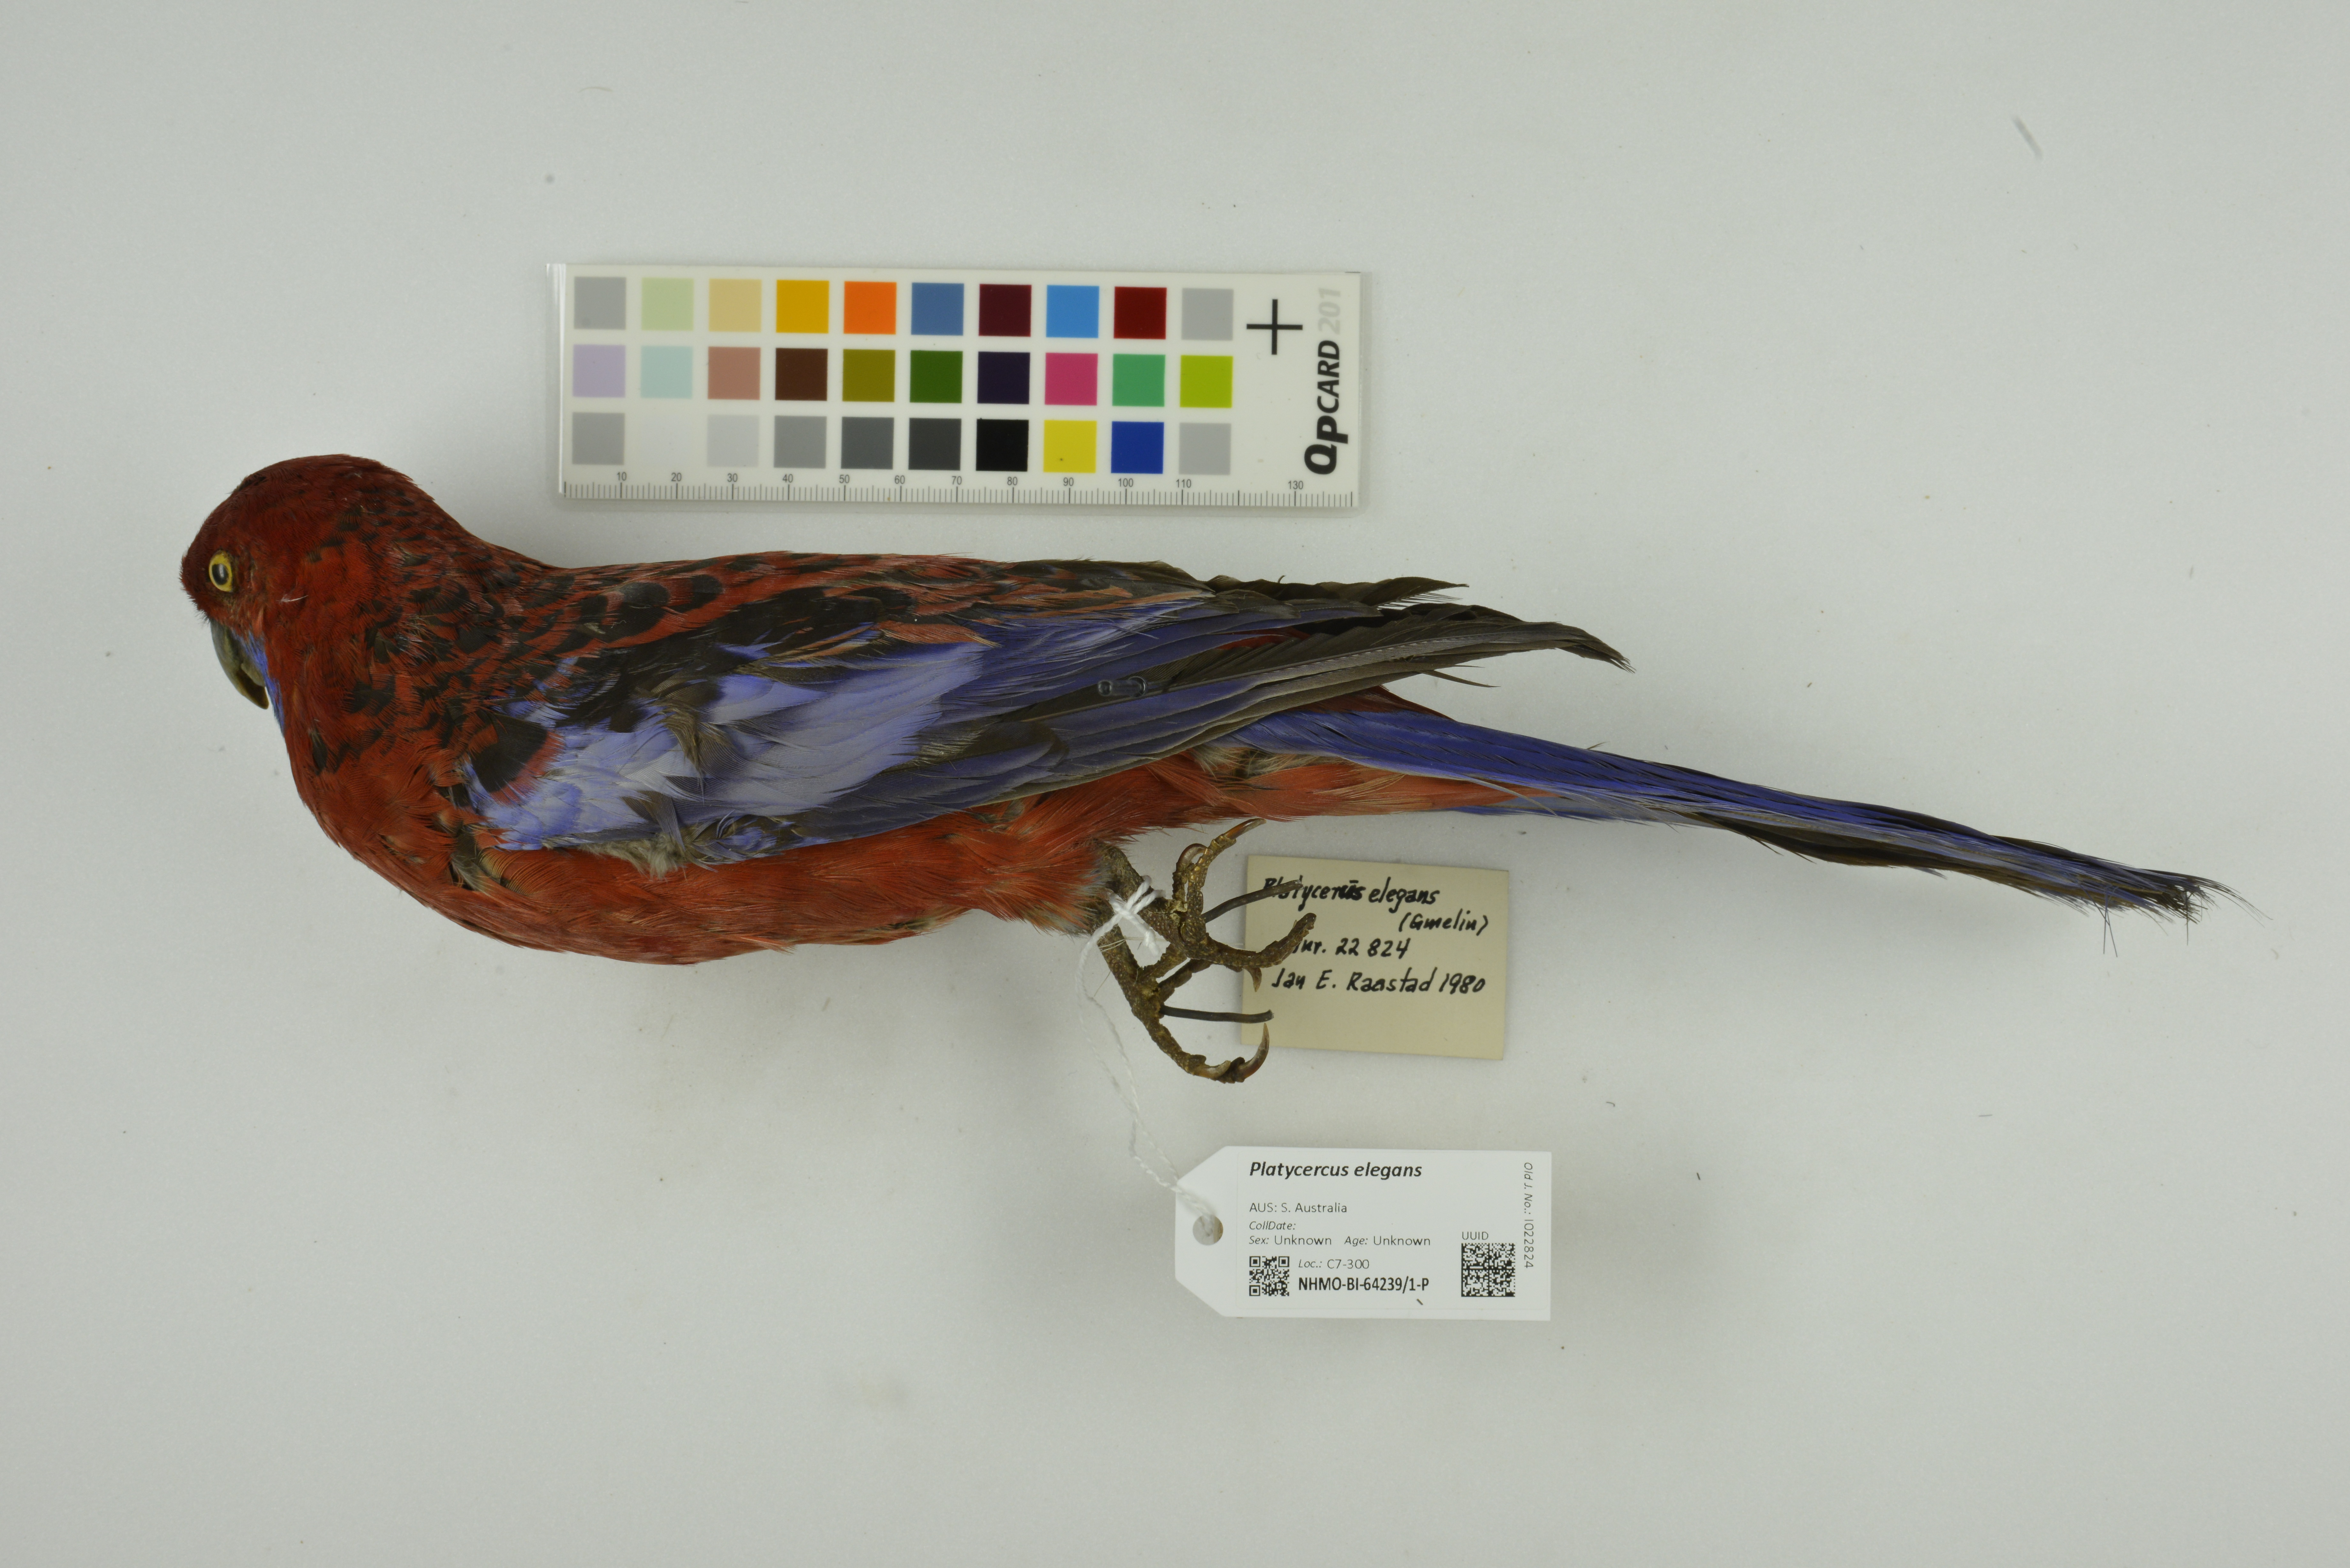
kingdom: Animalia
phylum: Chordata
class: Aves
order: Psittaciformes
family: Psittacidae
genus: Platycercus
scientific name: Platycercus elegans
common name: Crimson rosella
